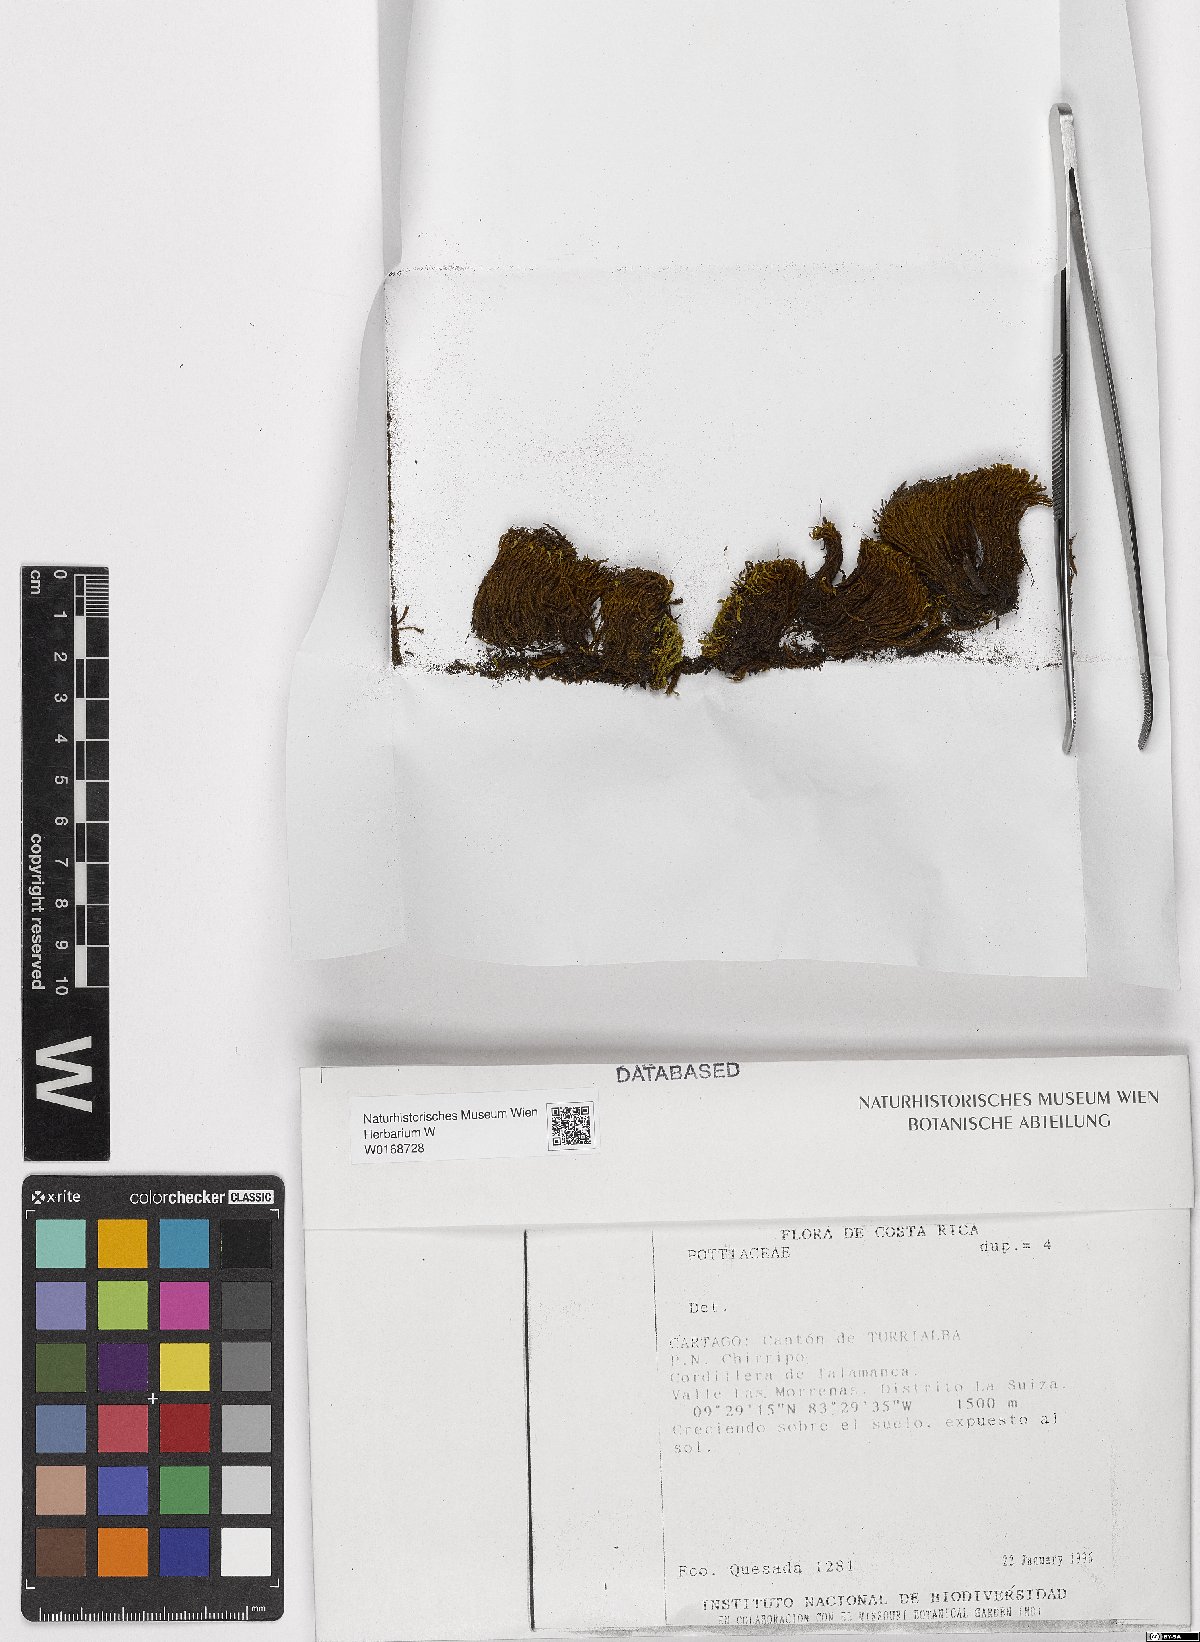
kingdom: Plantae
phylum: Bryophyta
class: Bryopsida
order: Pottiales
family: Pottiaceae
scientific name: Pottiaceae
